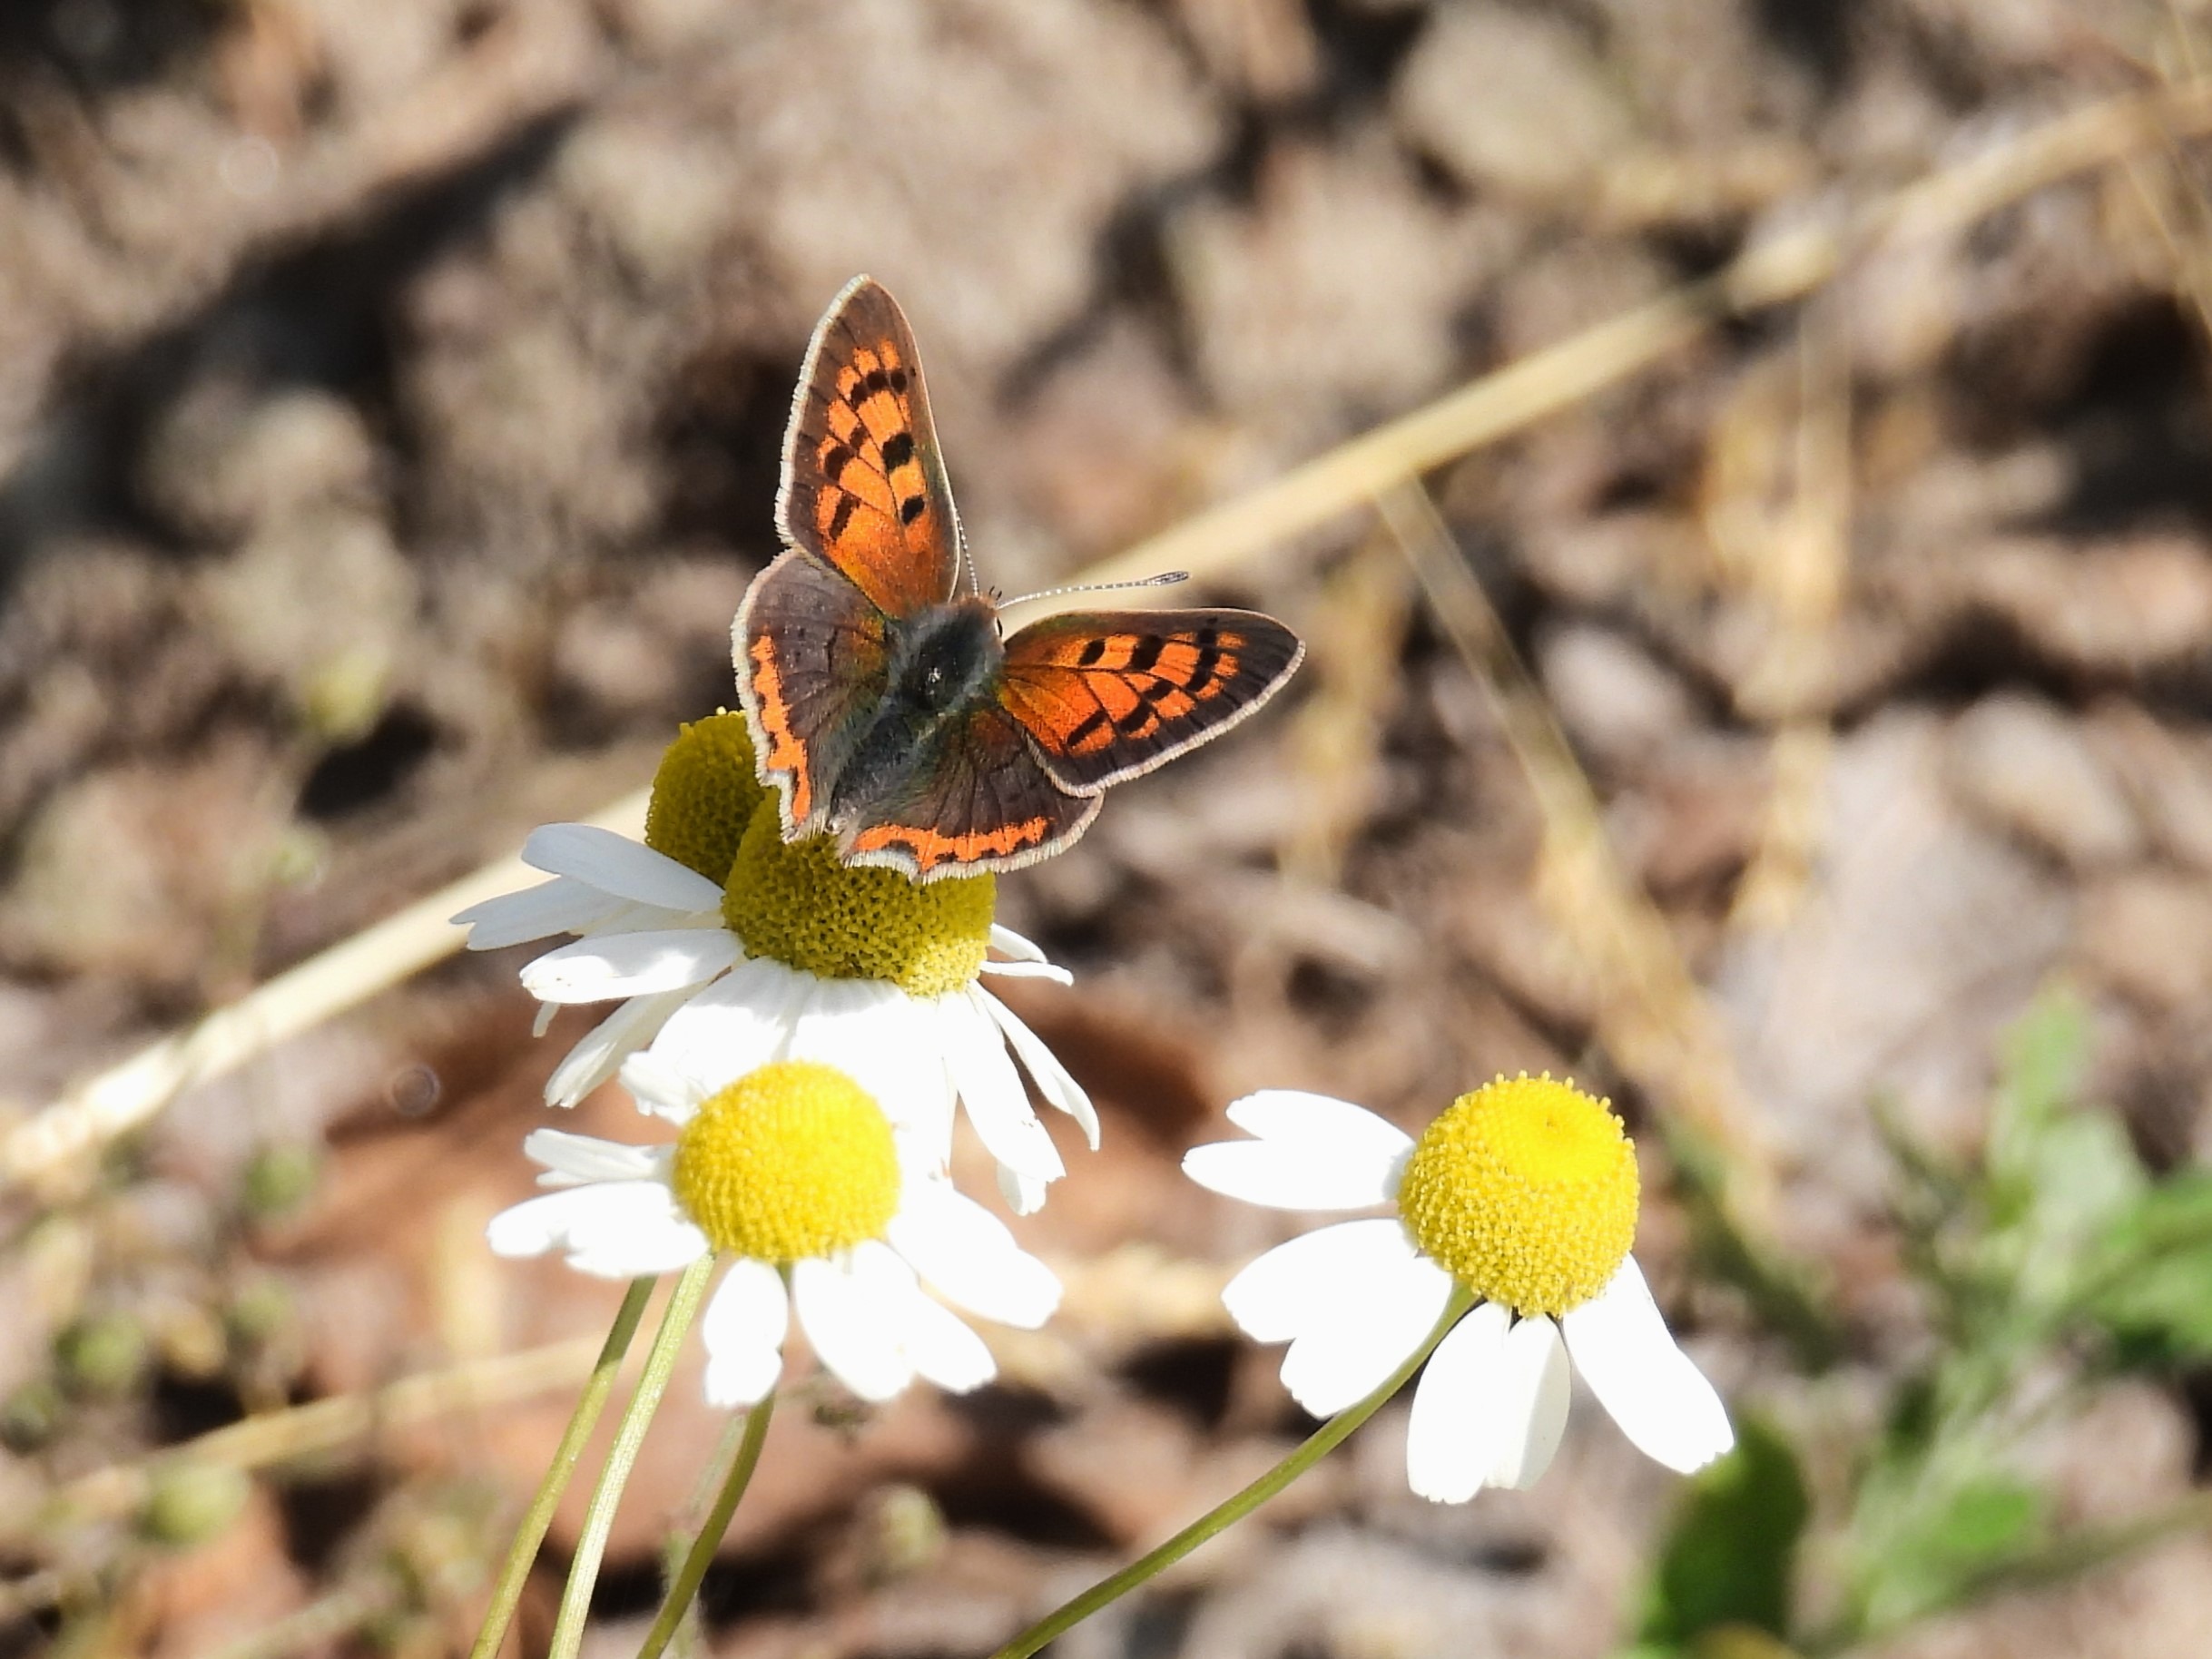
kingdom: Animalia
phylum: Arthropoda
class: Insecta
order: Lepidoptera
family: Lycaenidae
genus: Lycaena
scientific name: Lycaena phlaeas
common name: Lille ildfugl
